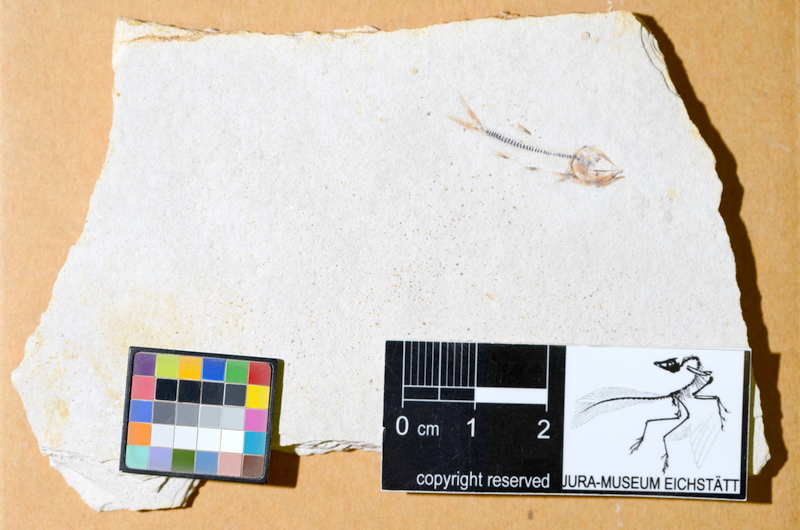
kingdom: Animalia
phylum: Chordata
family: Ascalaboidae
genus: Ebertichthys
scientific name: Ebertichthys ettlingensis
